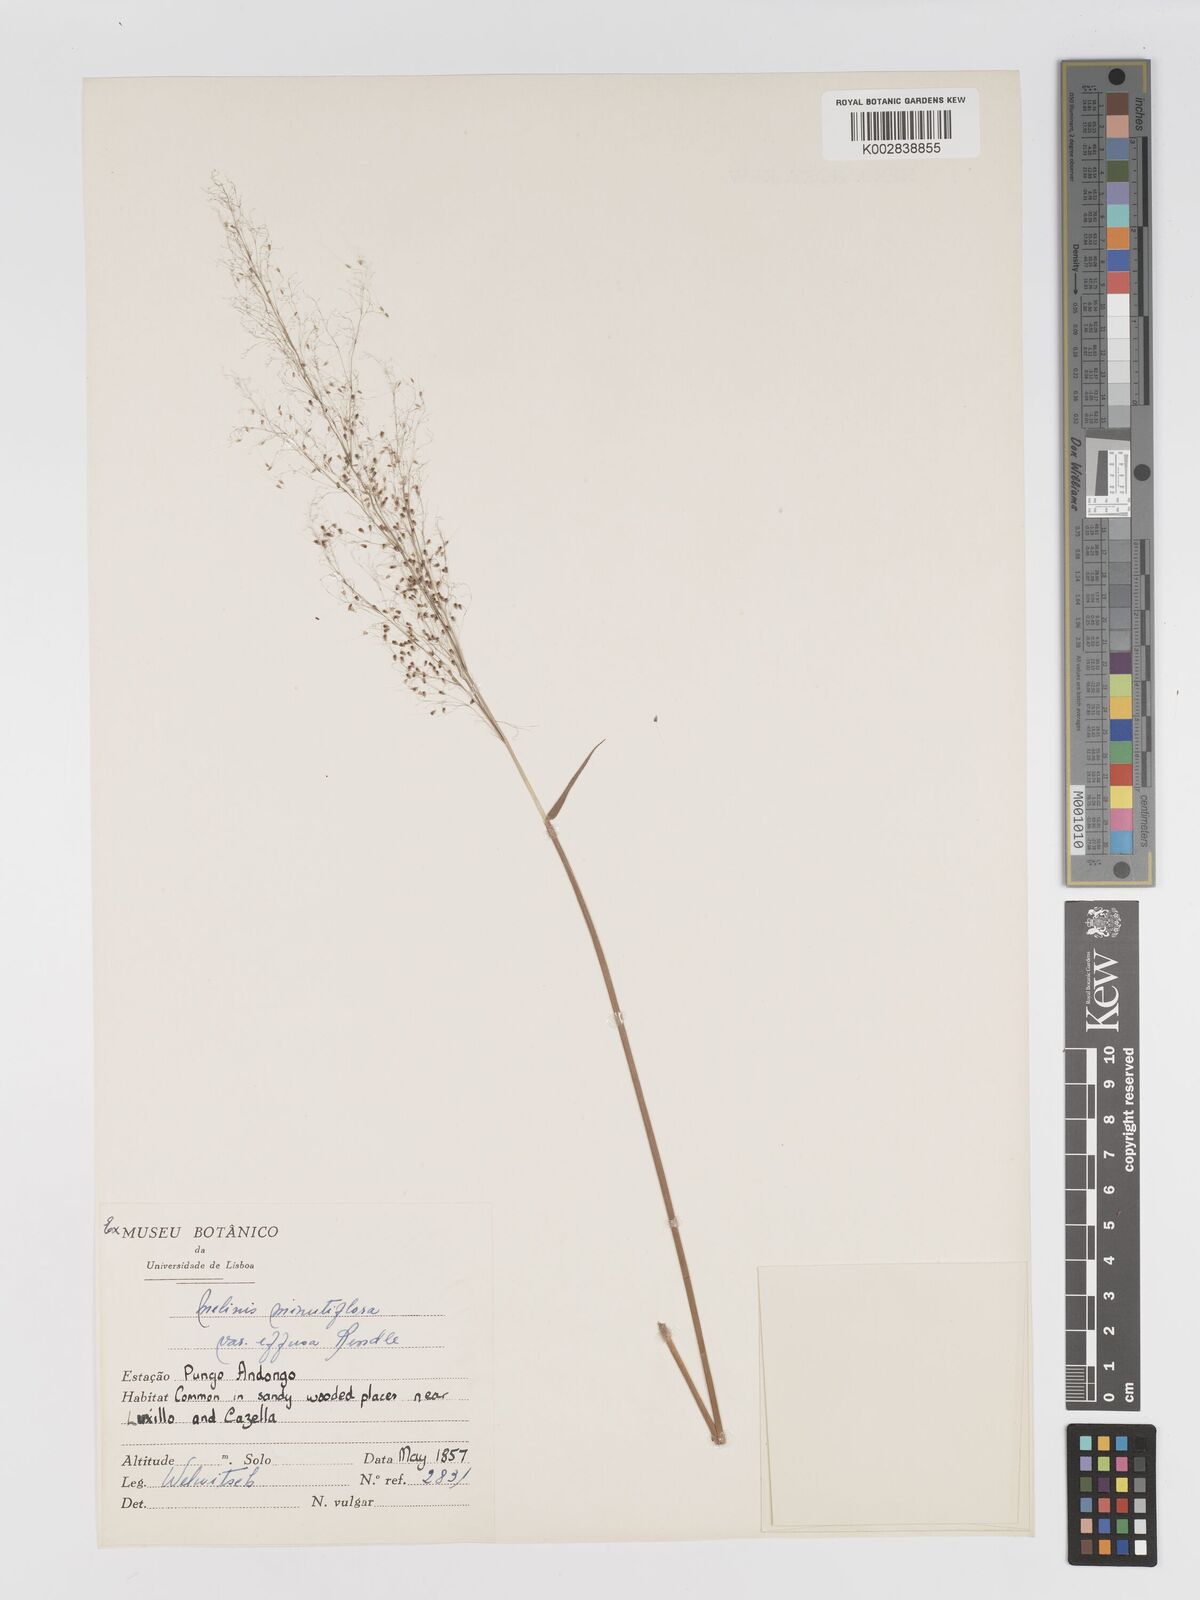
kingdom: Plantae
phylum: Tracheophyta
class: Liliopsida
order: Poales
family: Poaceae
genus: Melinis
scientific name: Melinis tenuissima
